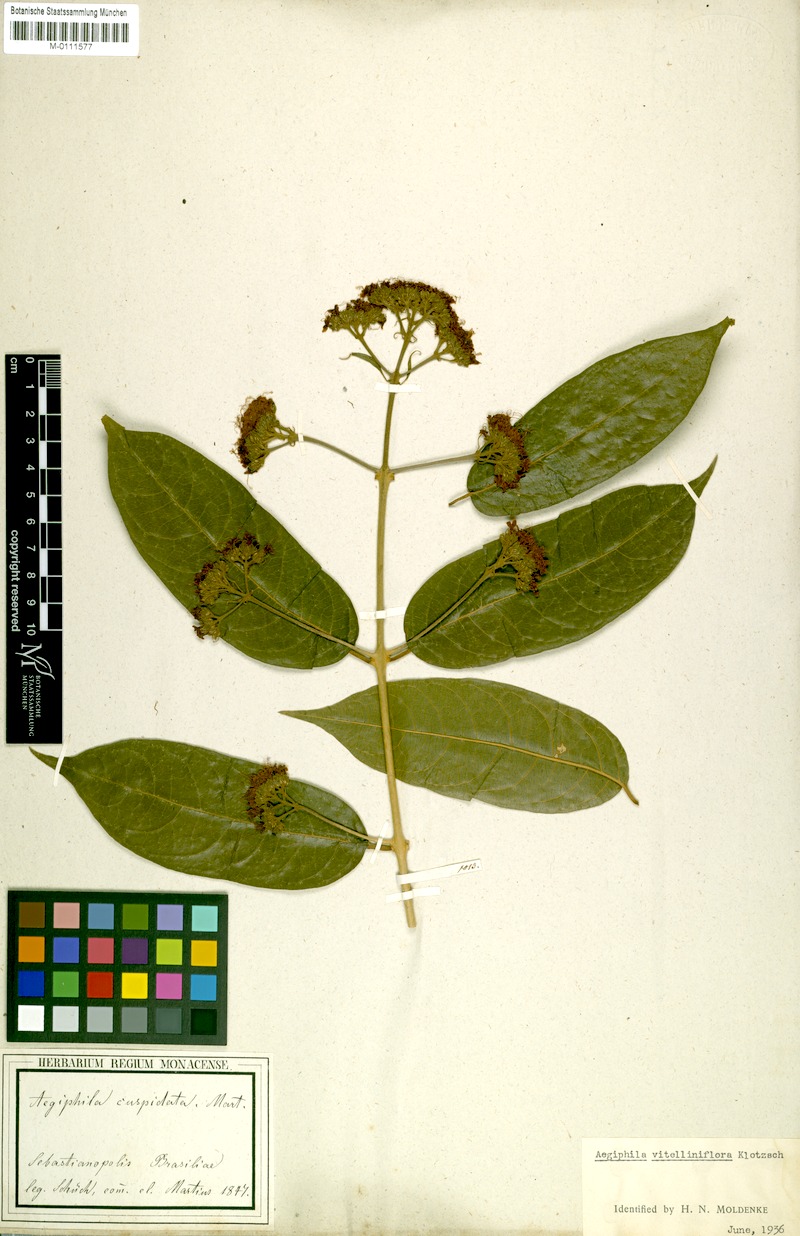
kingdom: Plantae
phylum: Tracheophyta
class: Magnoliopsida
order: Lamiales
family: Lamiaceae
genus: Aegiphila
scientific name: Aegiphila vitelliniflora
